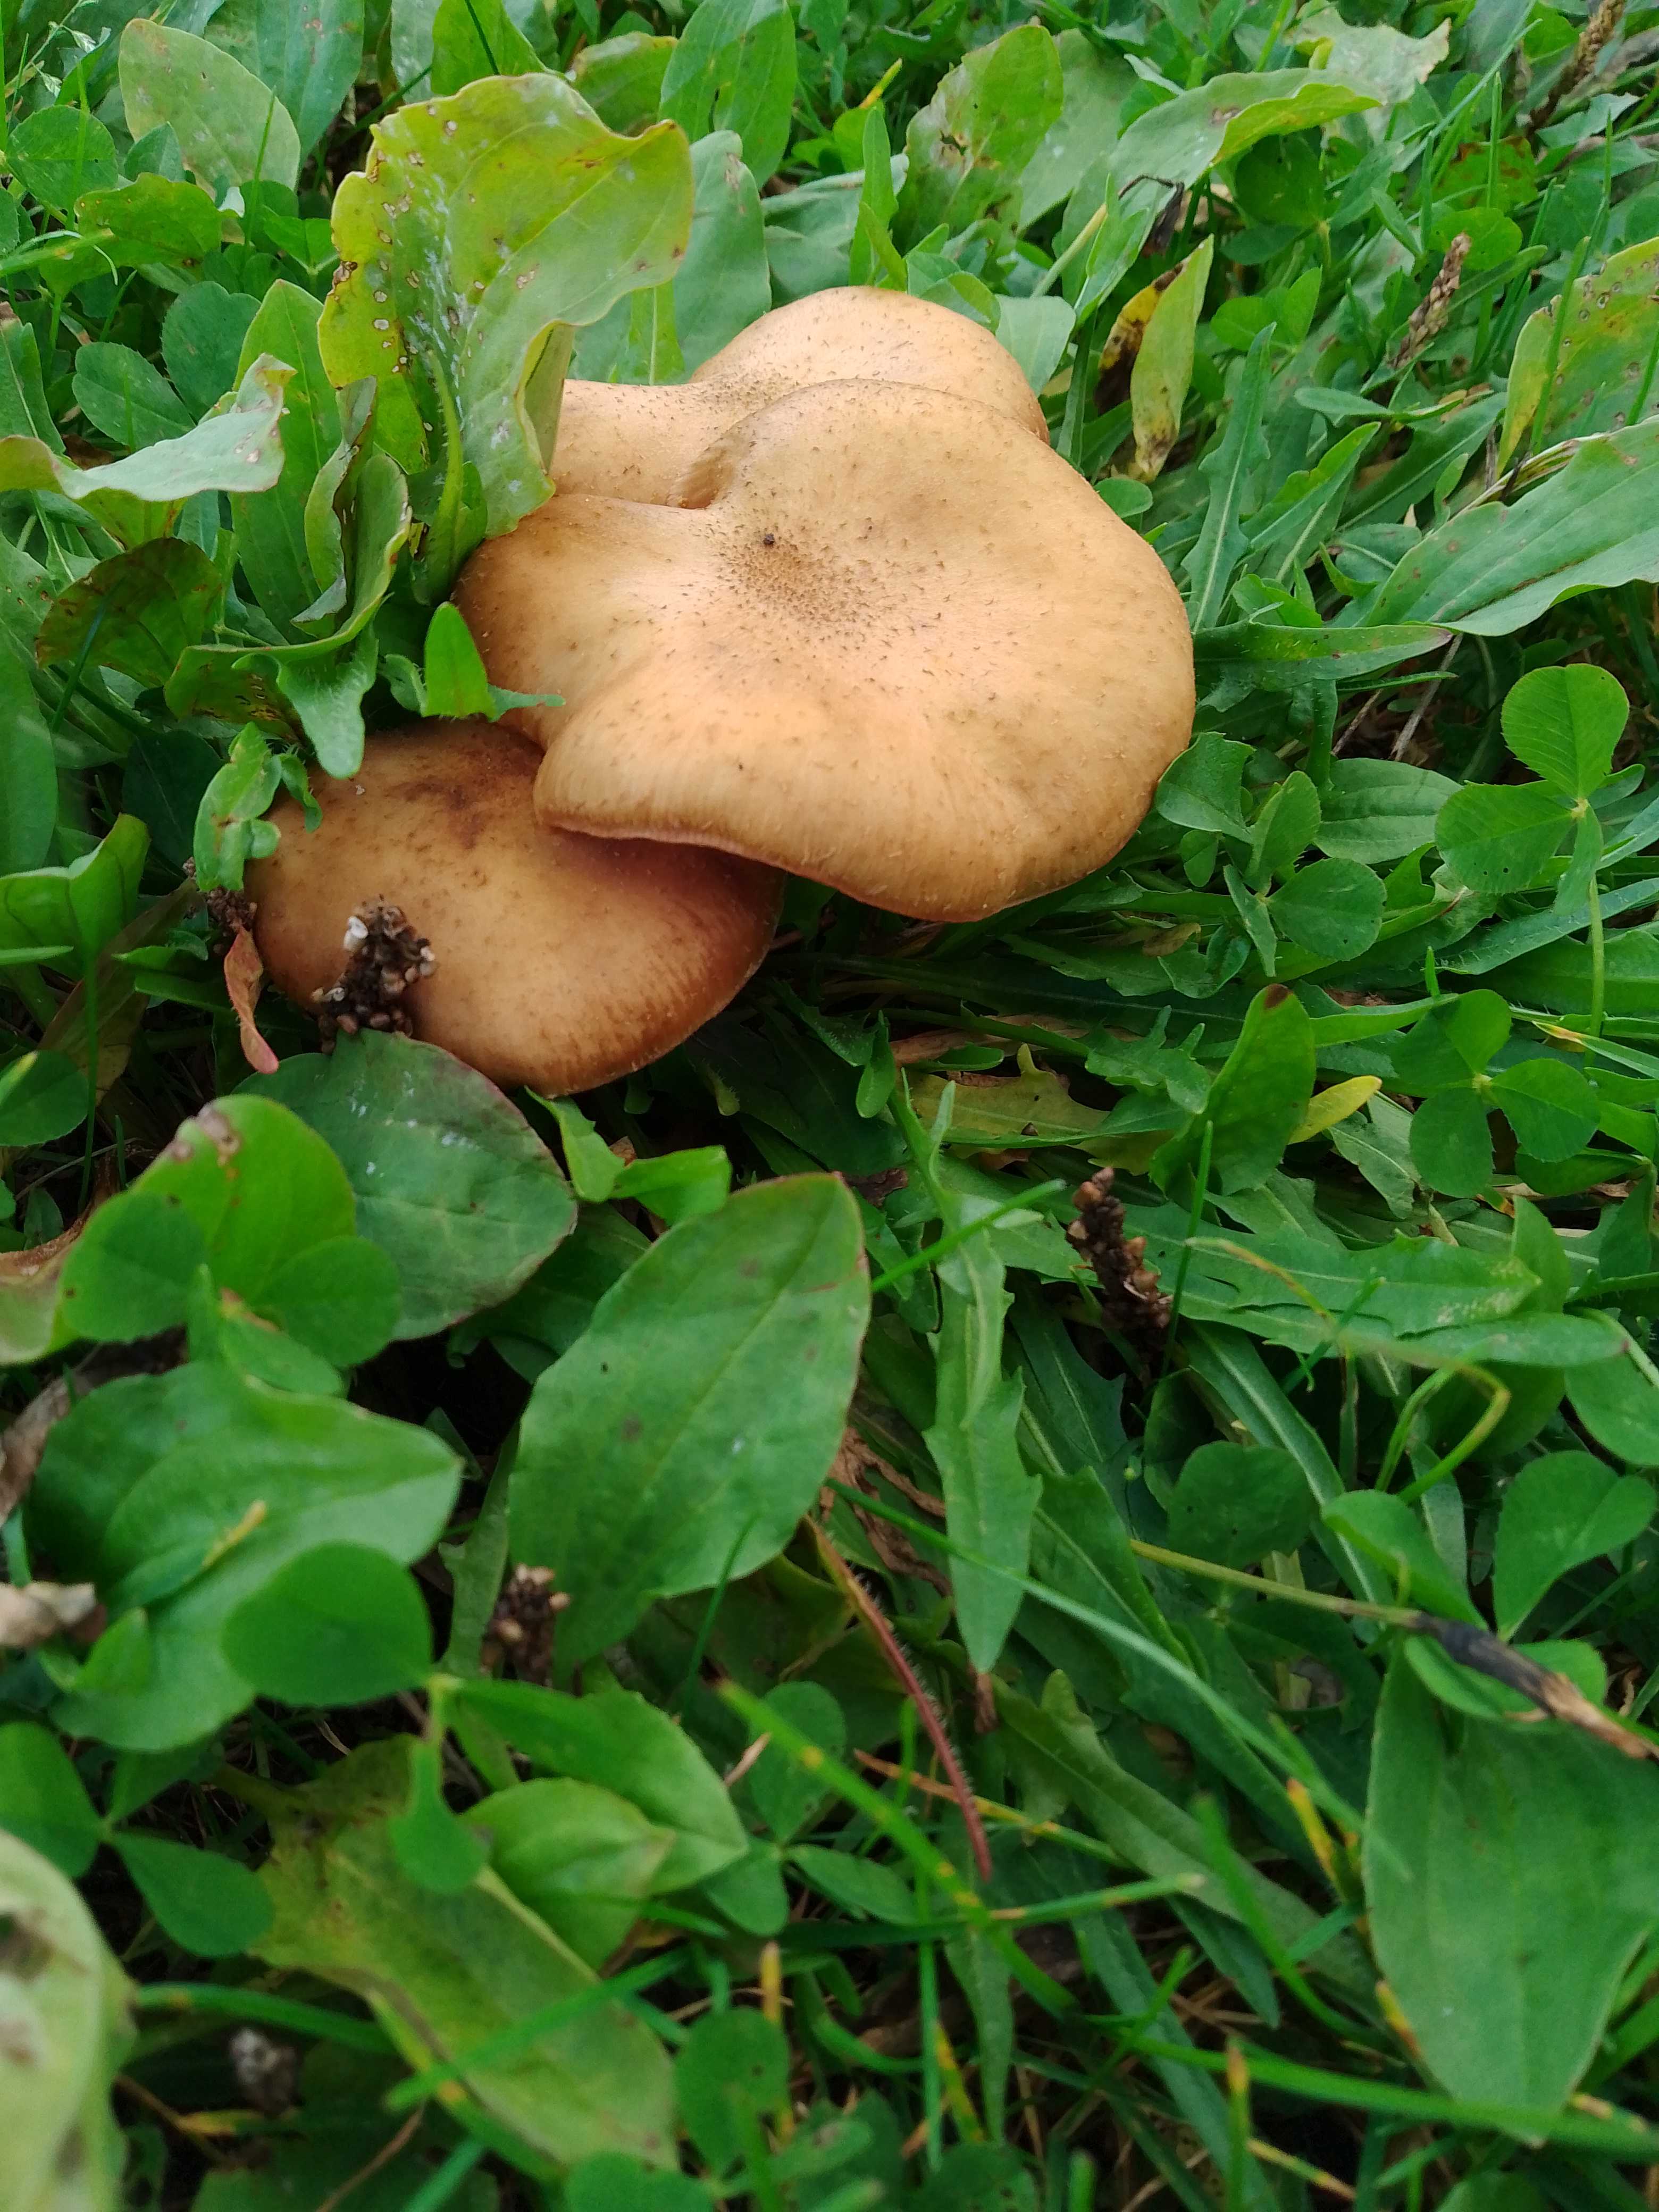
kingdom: Fungi
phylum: Basidiomycota
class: Agaricomycetes
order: Agaricales
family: Physalacriaceae
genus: Armillaria
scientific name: Armillaria lutea
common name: køllestokket honningsvamp
